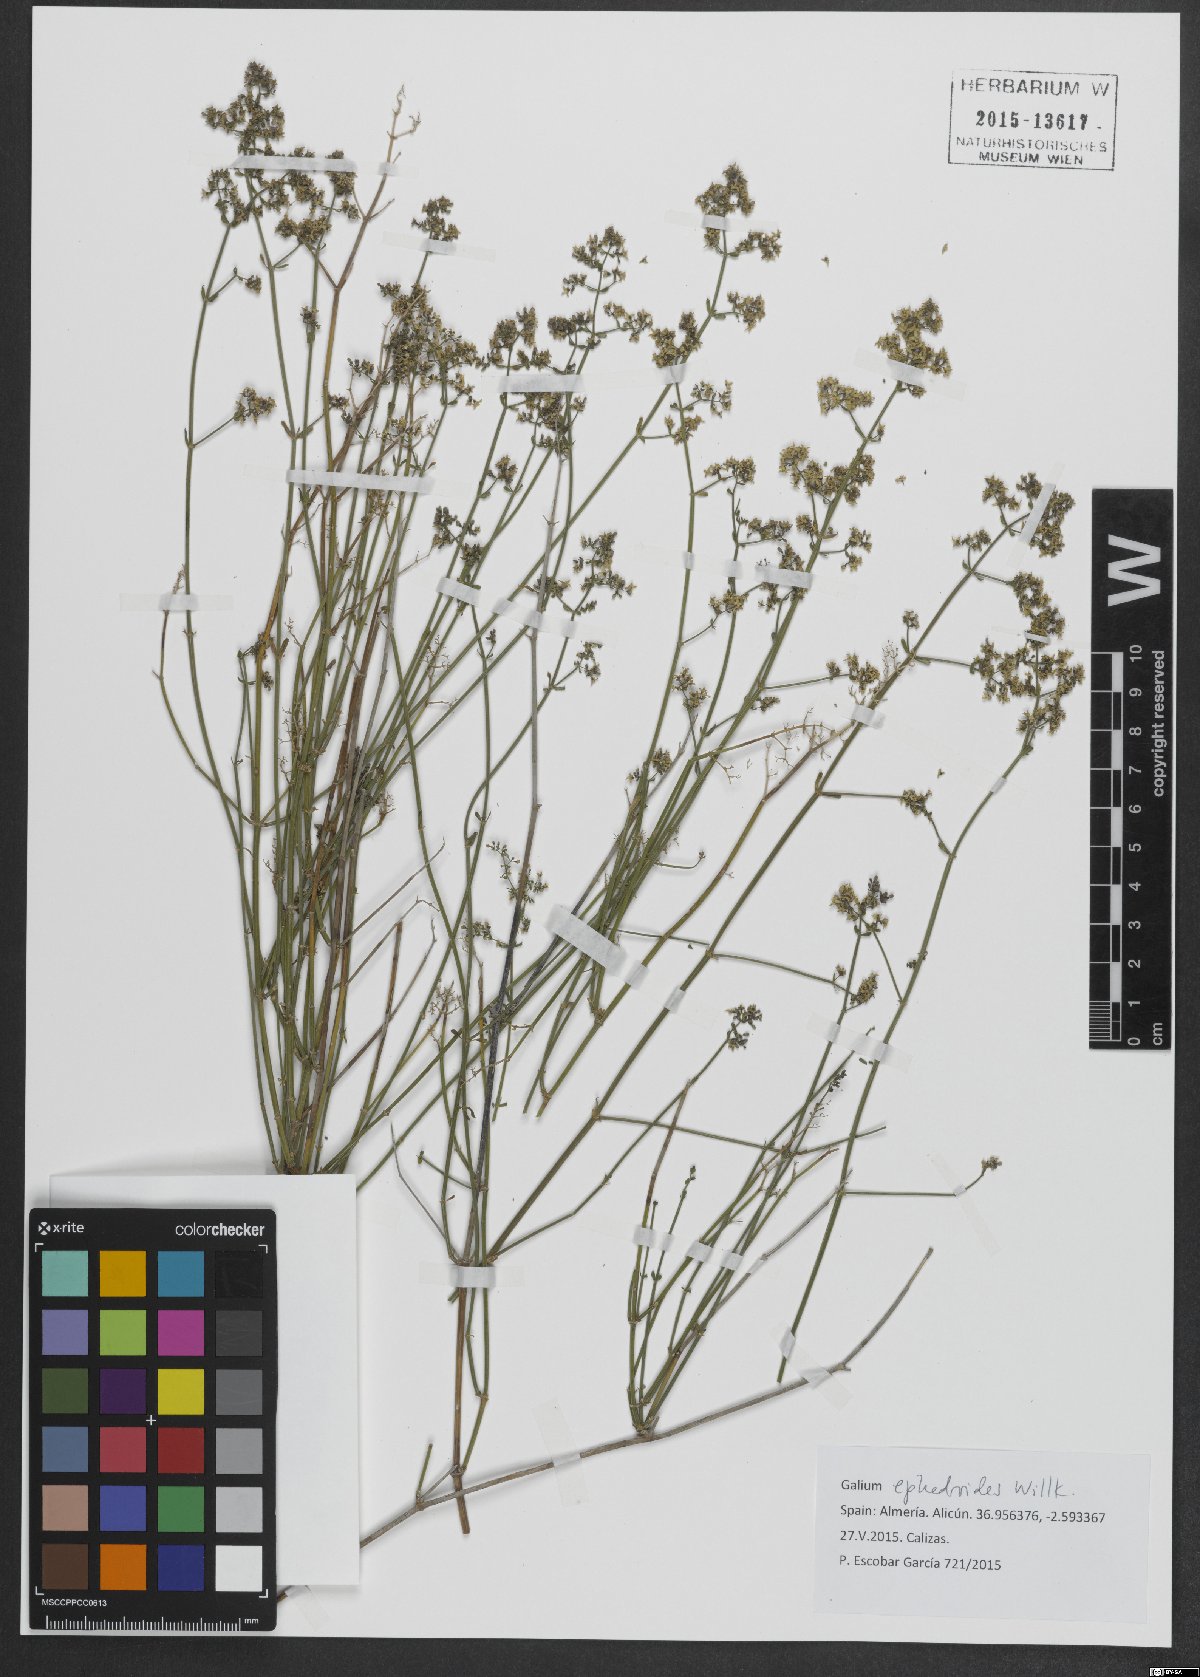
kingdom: Plantae
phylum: Tracheophyta
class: Magnoliopsida
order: Gentianales
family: Rubiaceae
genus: Galium
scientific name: Galium ephedroides
